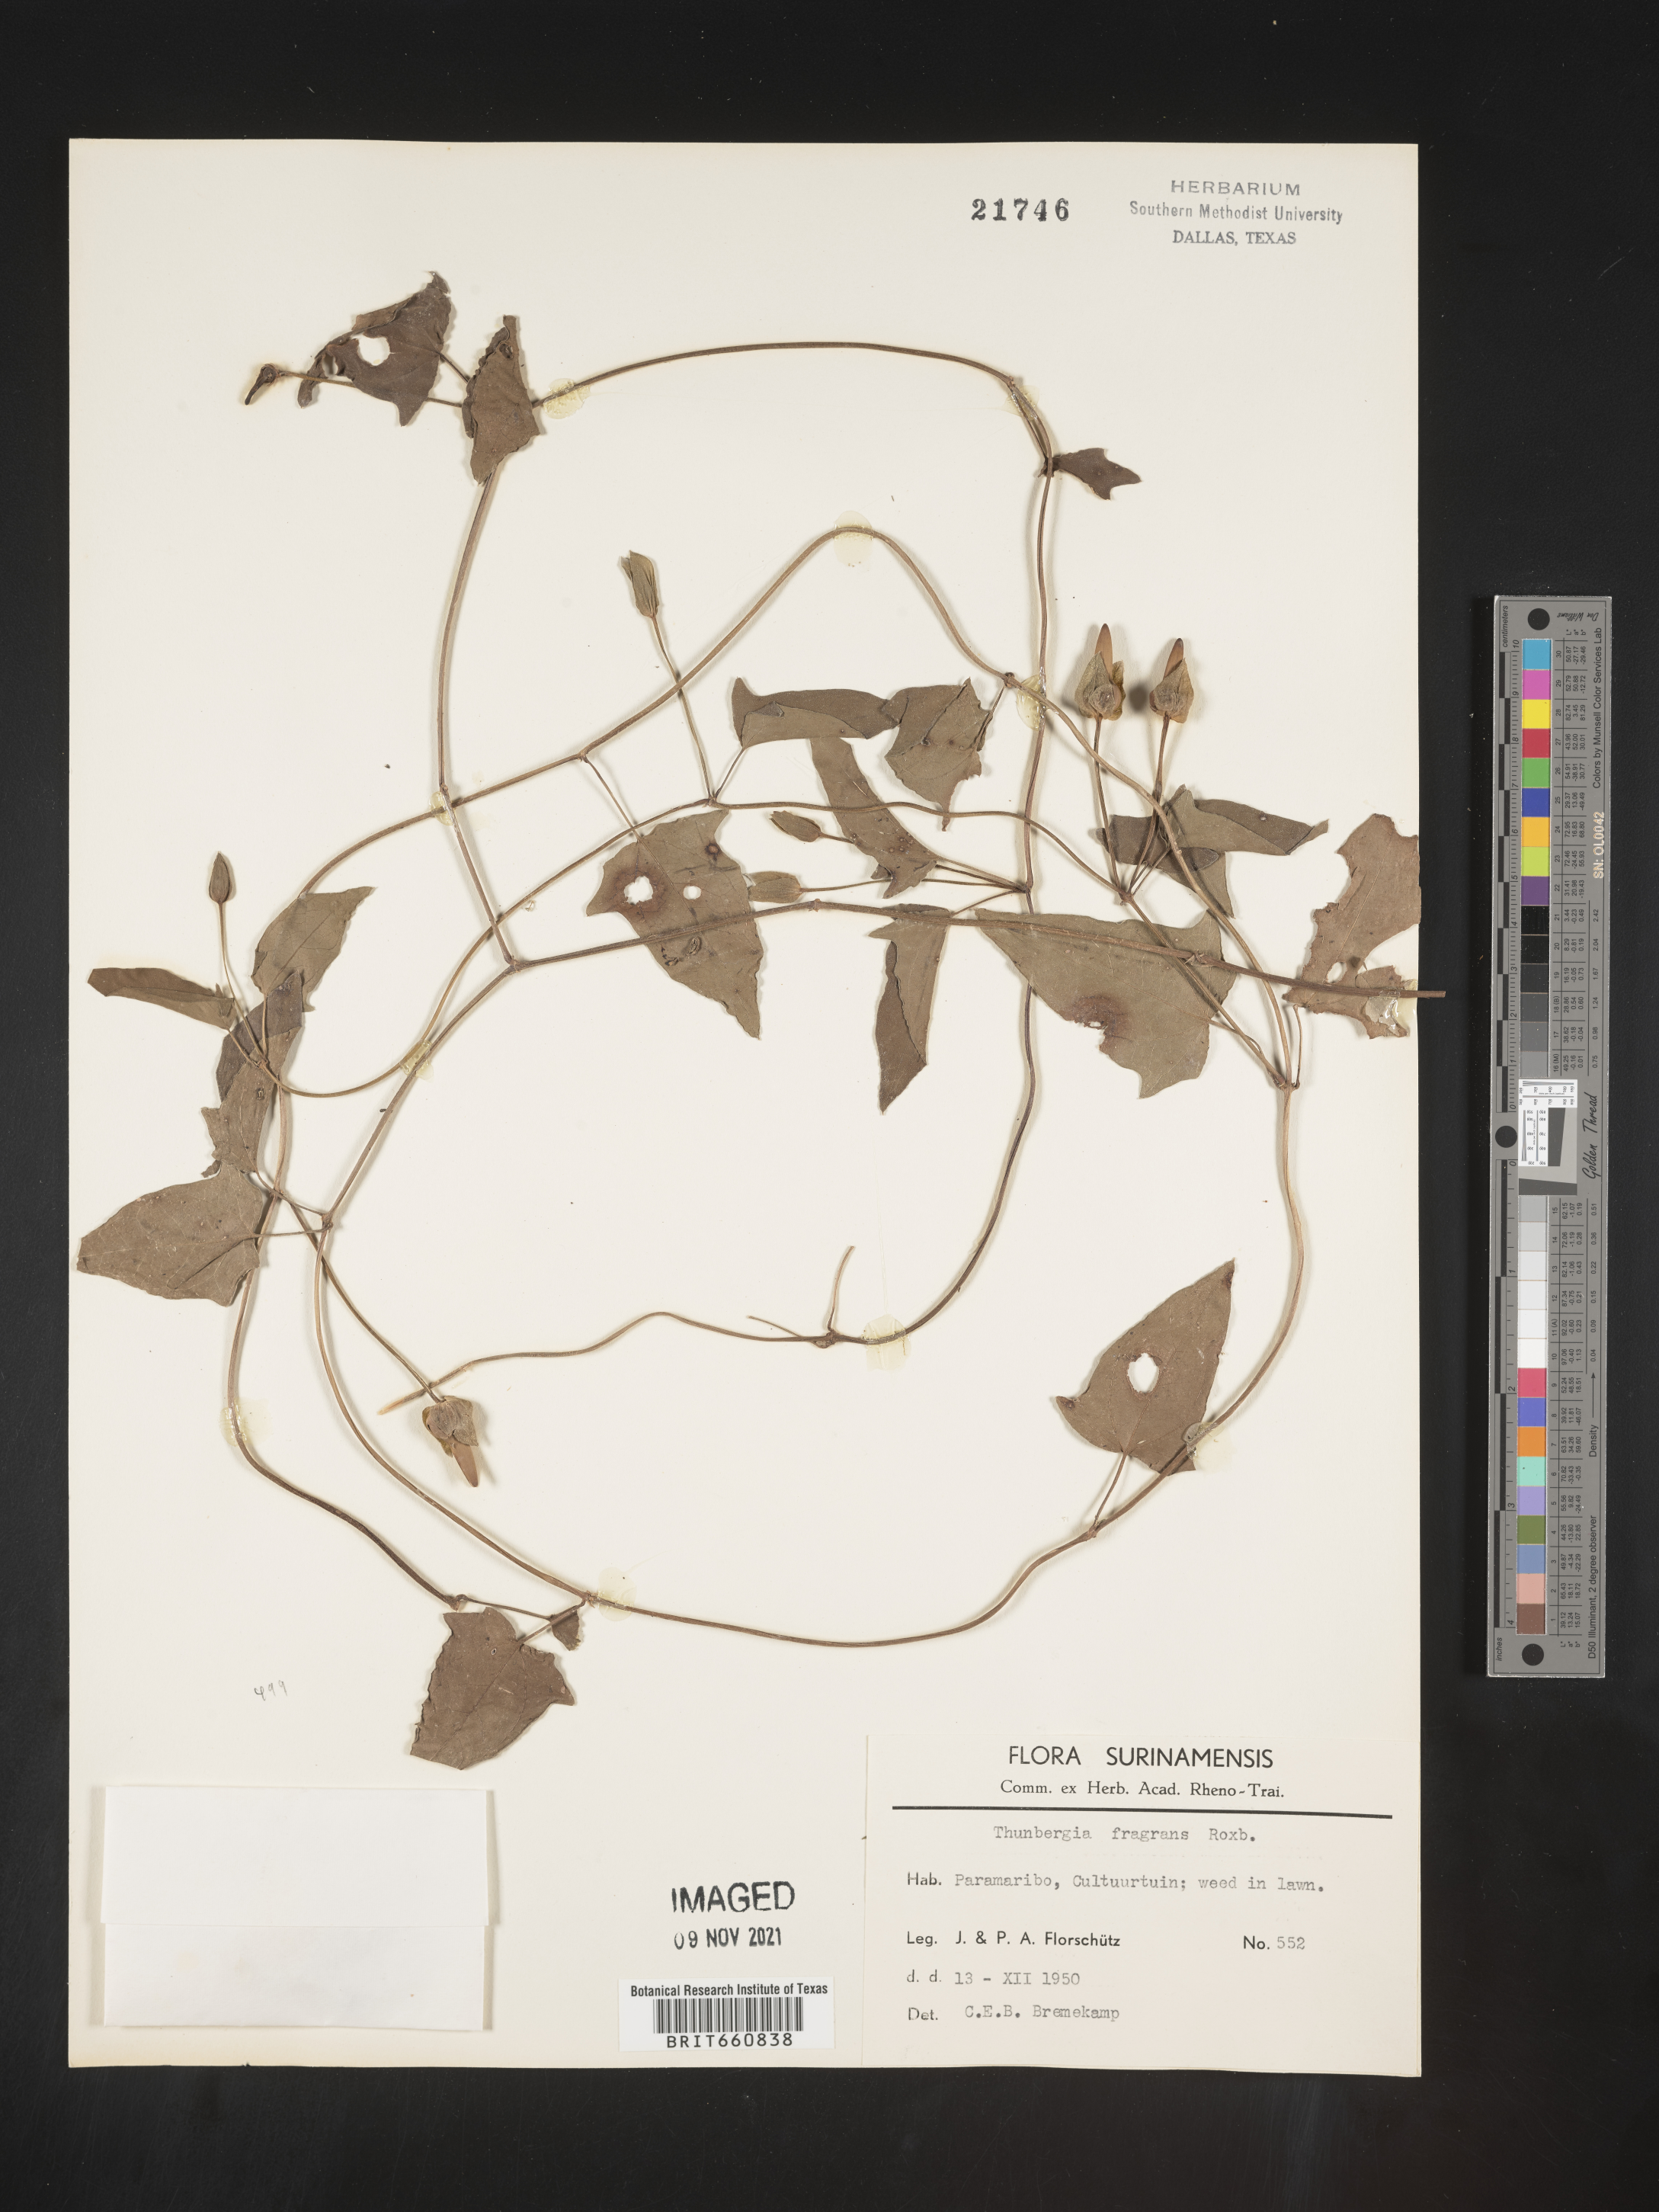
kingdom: Plantae
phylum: Tracheophyta
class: Magnoliopsida
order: Lamiales
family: Acanthaceae
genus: Thunbergia
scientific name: Thunbergia
